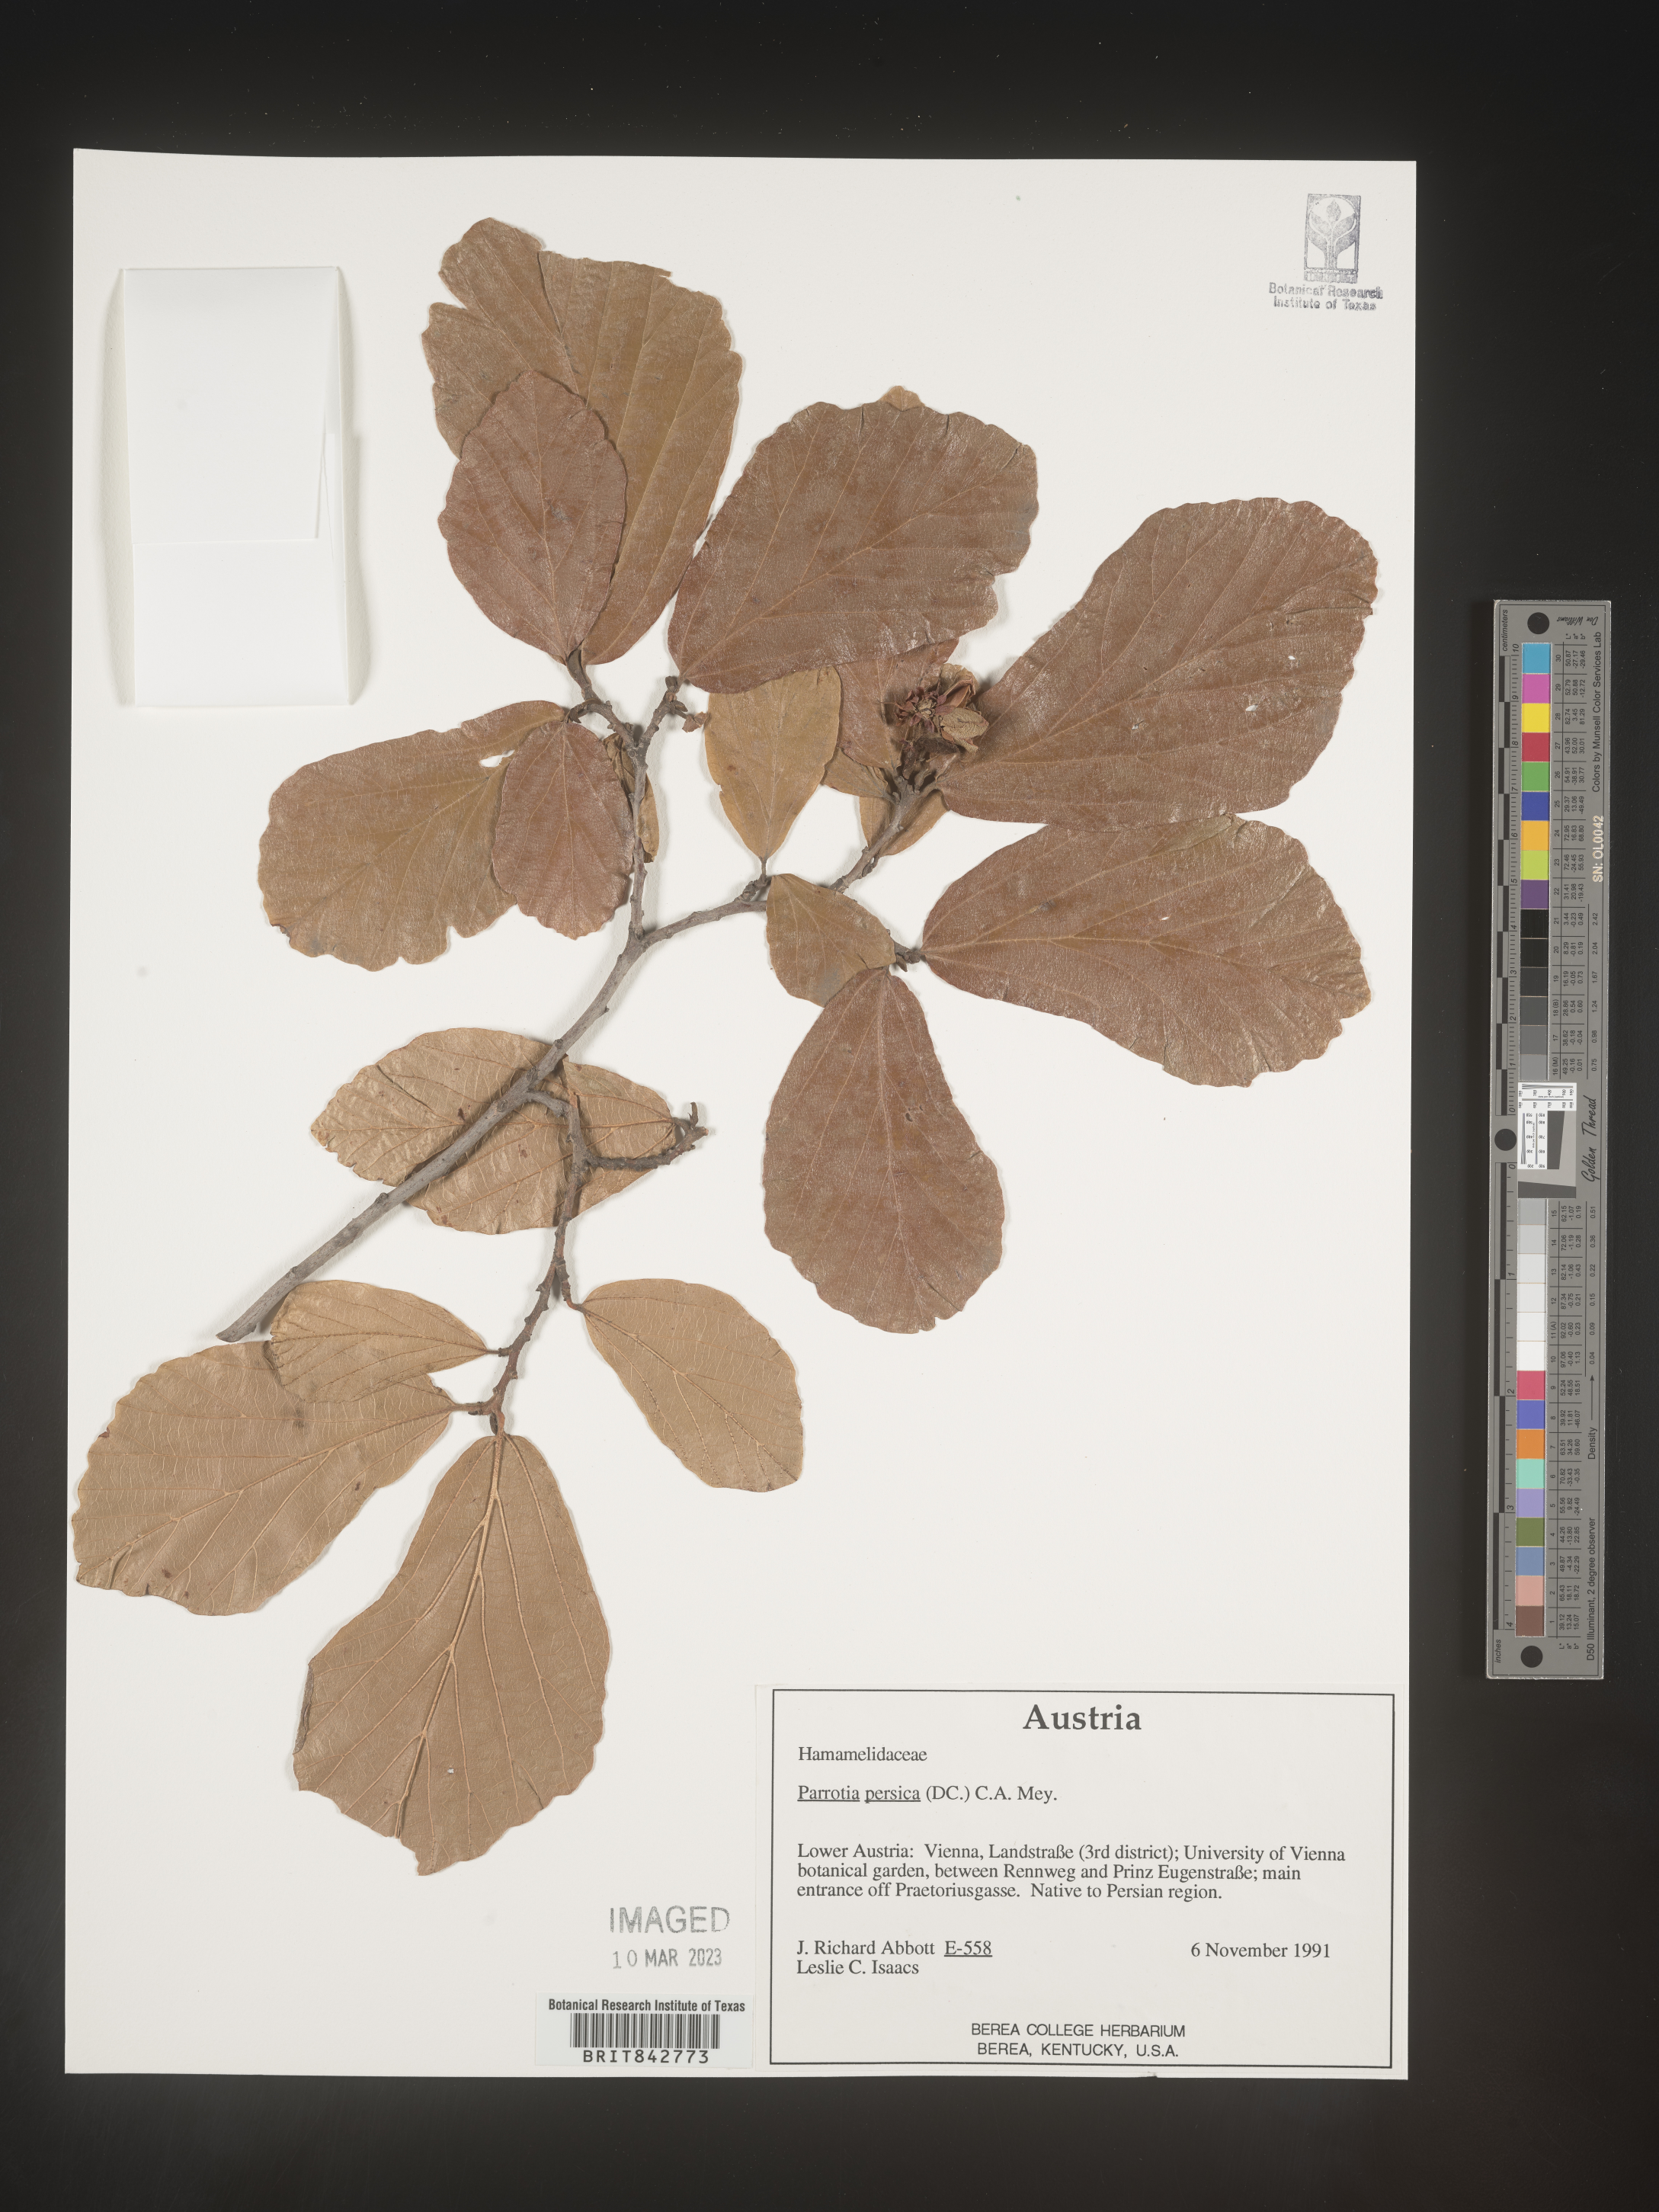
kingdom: Plantae
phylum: Tracheophyta
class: Magnoliopsida
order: Saxifragales
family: Hamamelidaceae
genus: Hamamelis
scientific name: Hamamelis
